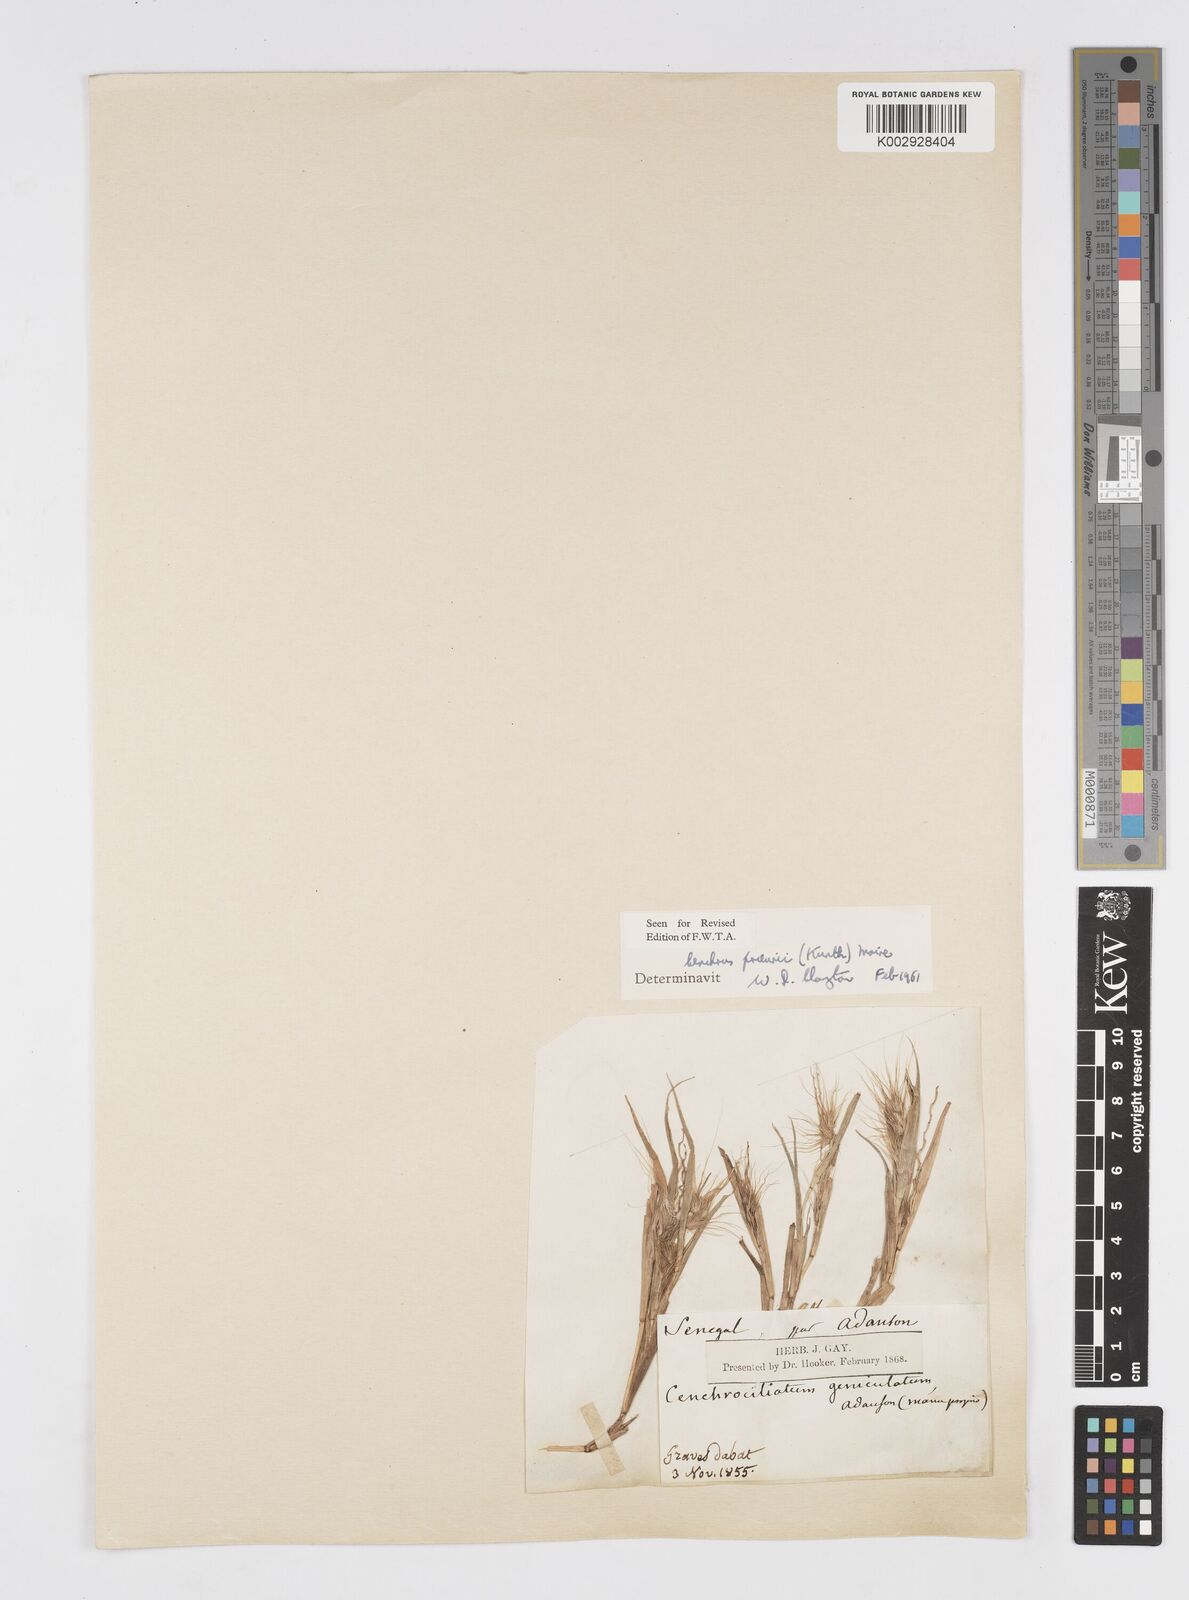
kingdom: Plantae
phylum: Tracheophyta
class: Liliopsida
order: Poales
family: Poaceae
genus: Cenchrus
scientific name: Cenchrus prieurii
